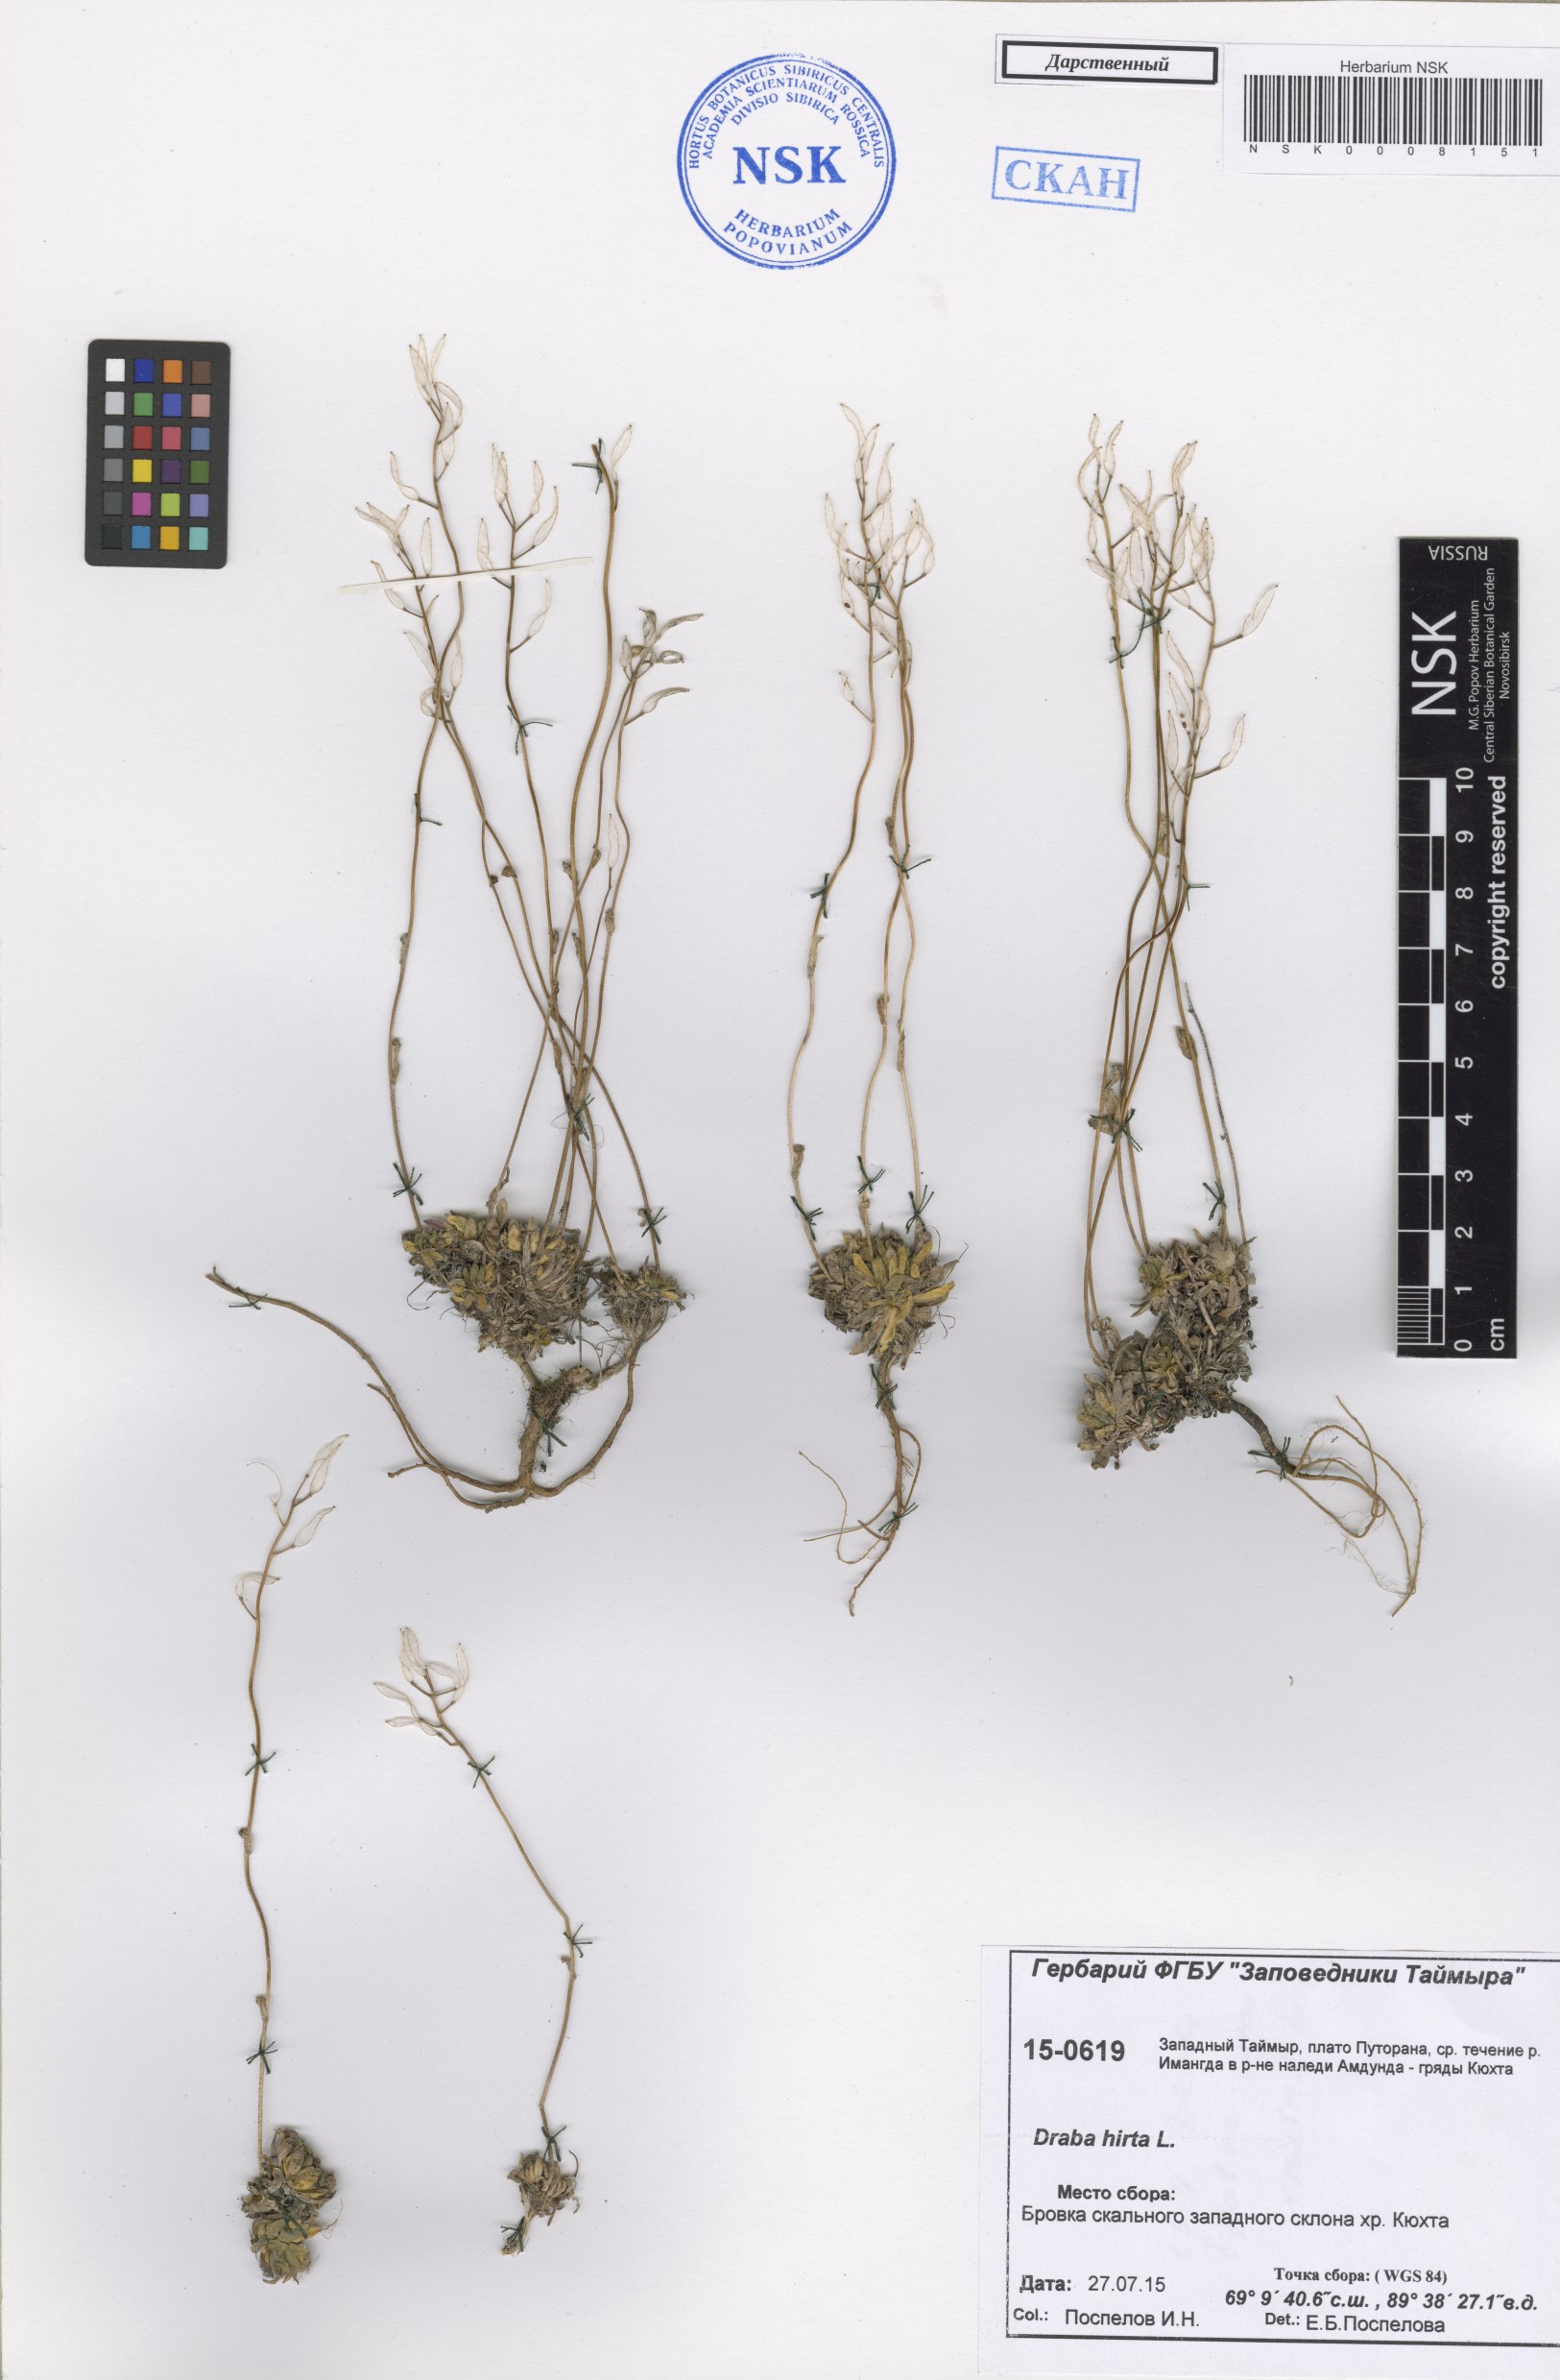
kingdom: Plantae
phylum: Tracheophyta
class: Magnoliopsida
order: Brassicales
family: Brassicaceae
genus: Draba
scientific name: Draba glabella
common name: Glaucous draba
